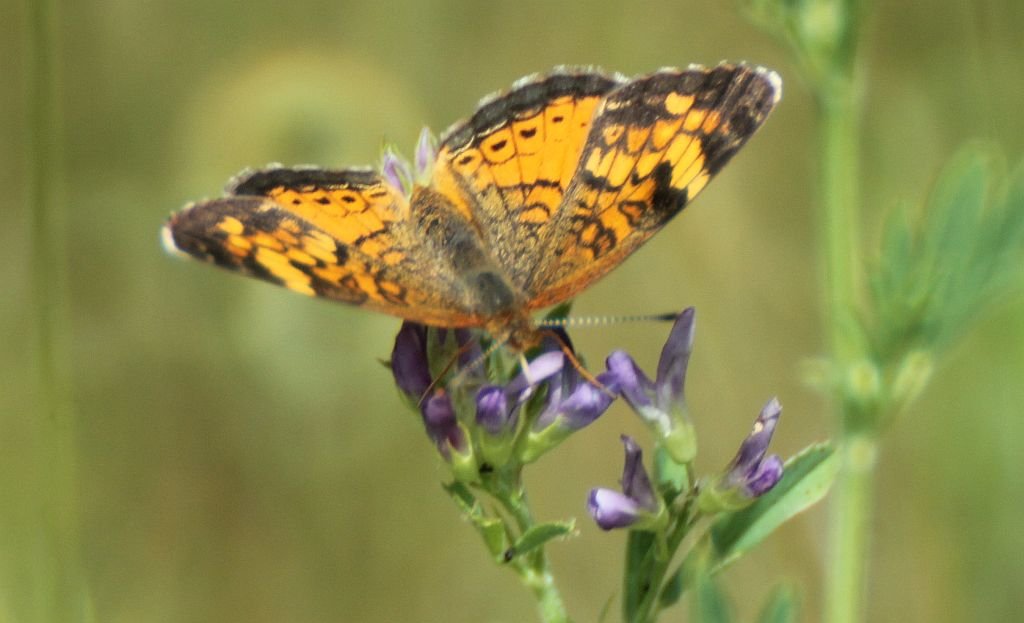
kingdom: Animalia
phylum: Arthropoda
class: Insecta
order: Lepidoptera
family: Nymphalidae
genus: Phyciodes
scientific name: Phyciodes tharos
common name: Northern Crescent
